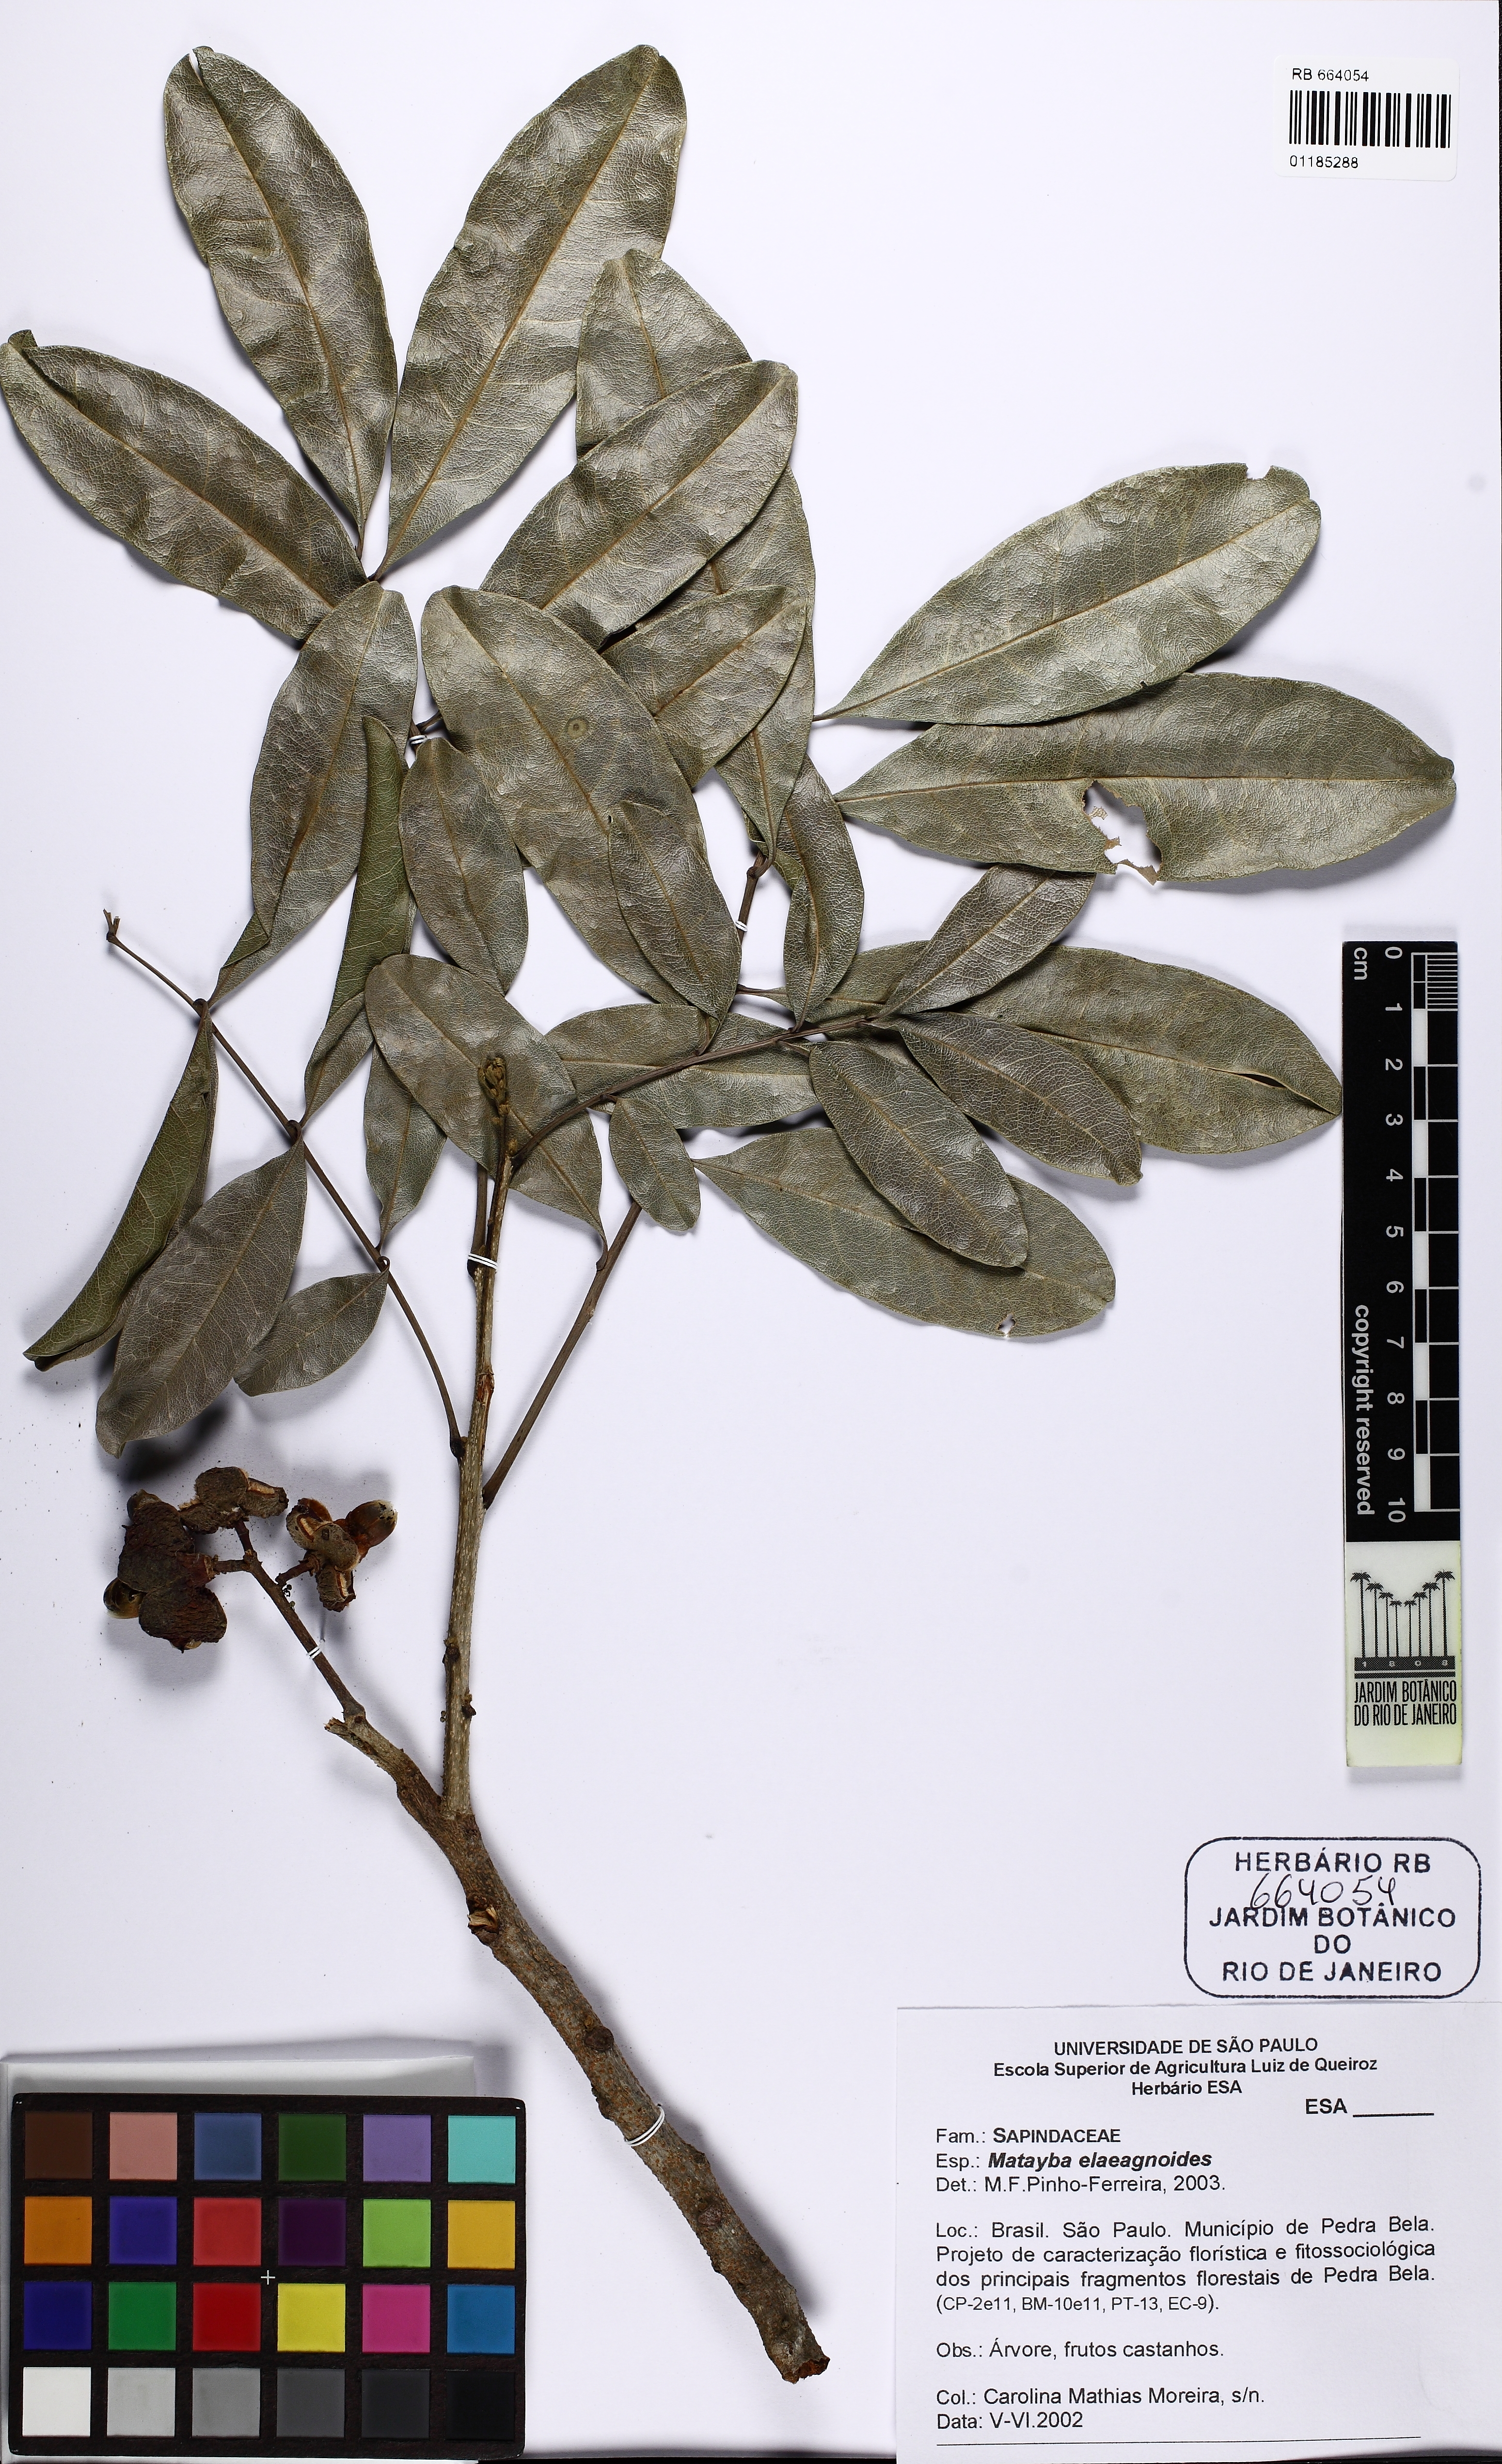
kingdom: Plantae
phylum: Tracheophyta
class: Magnoliopsida
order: Sapindales
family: Sapindaceae
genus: Matayba
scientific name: Matayba elaeagnoides
